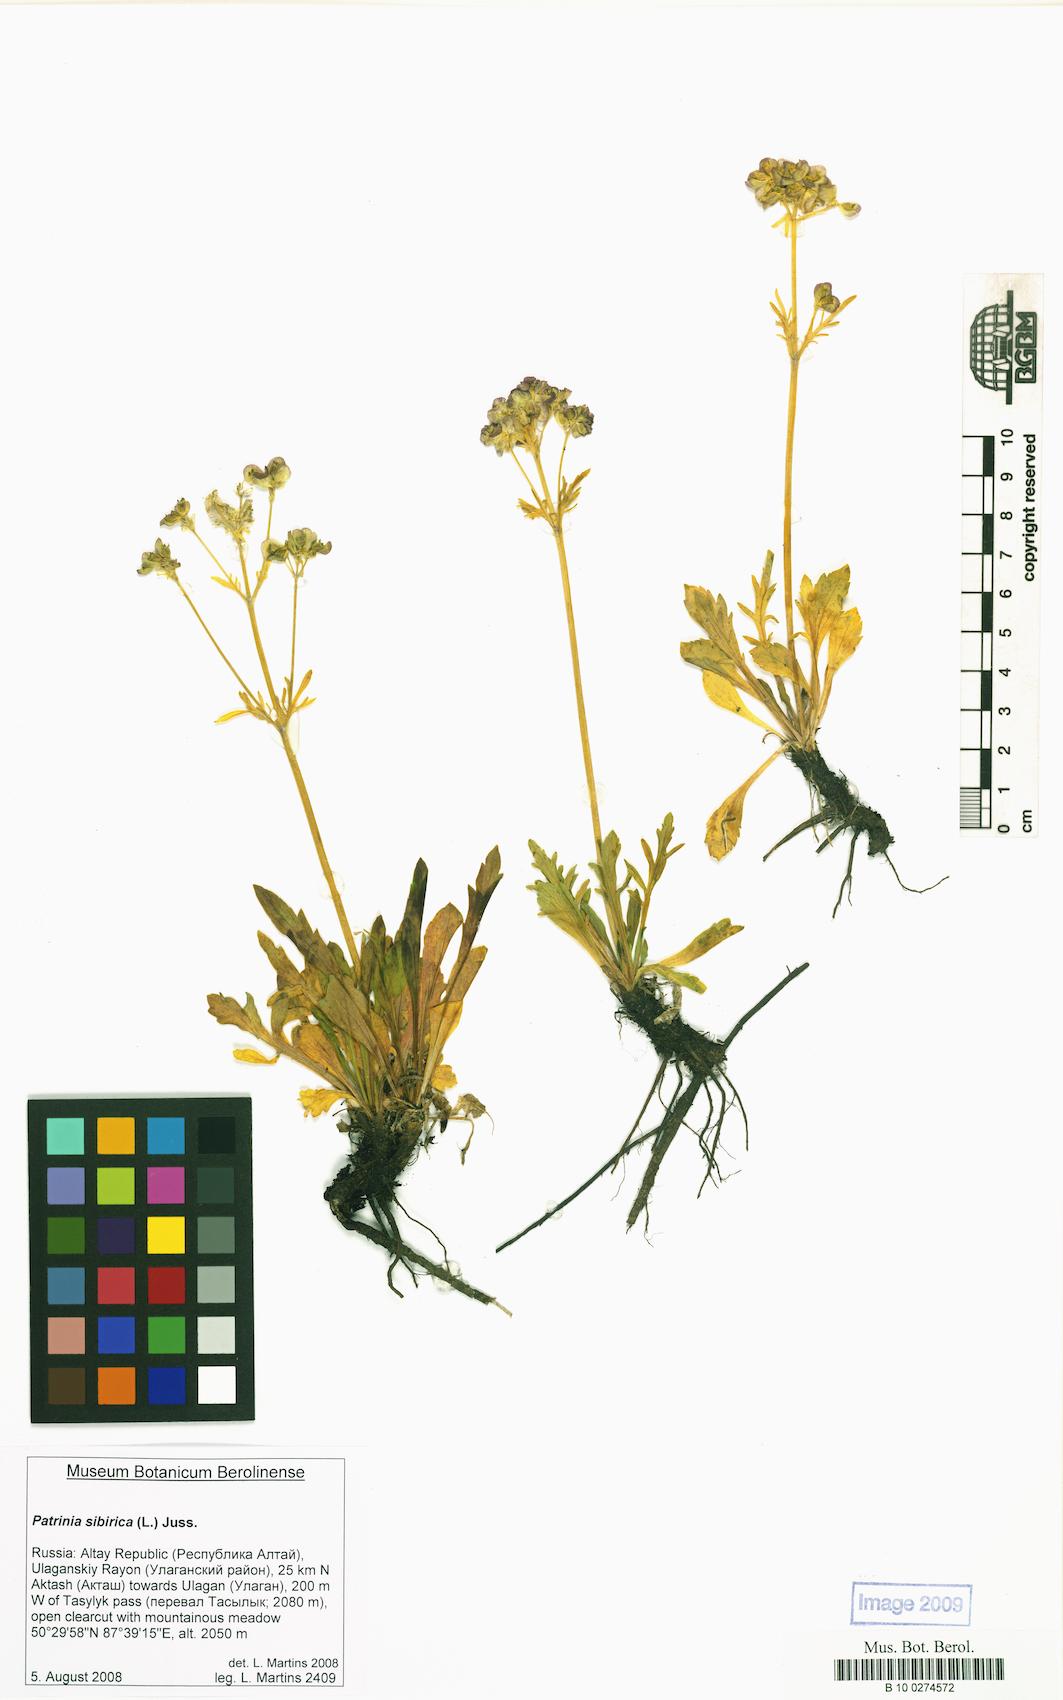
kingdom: Plantae
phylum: Tracheophyta
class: Magnoliopsida
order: Dipsacales
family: Caprifoliaceae
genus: Patrinia
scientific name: Patrinia sibirica
